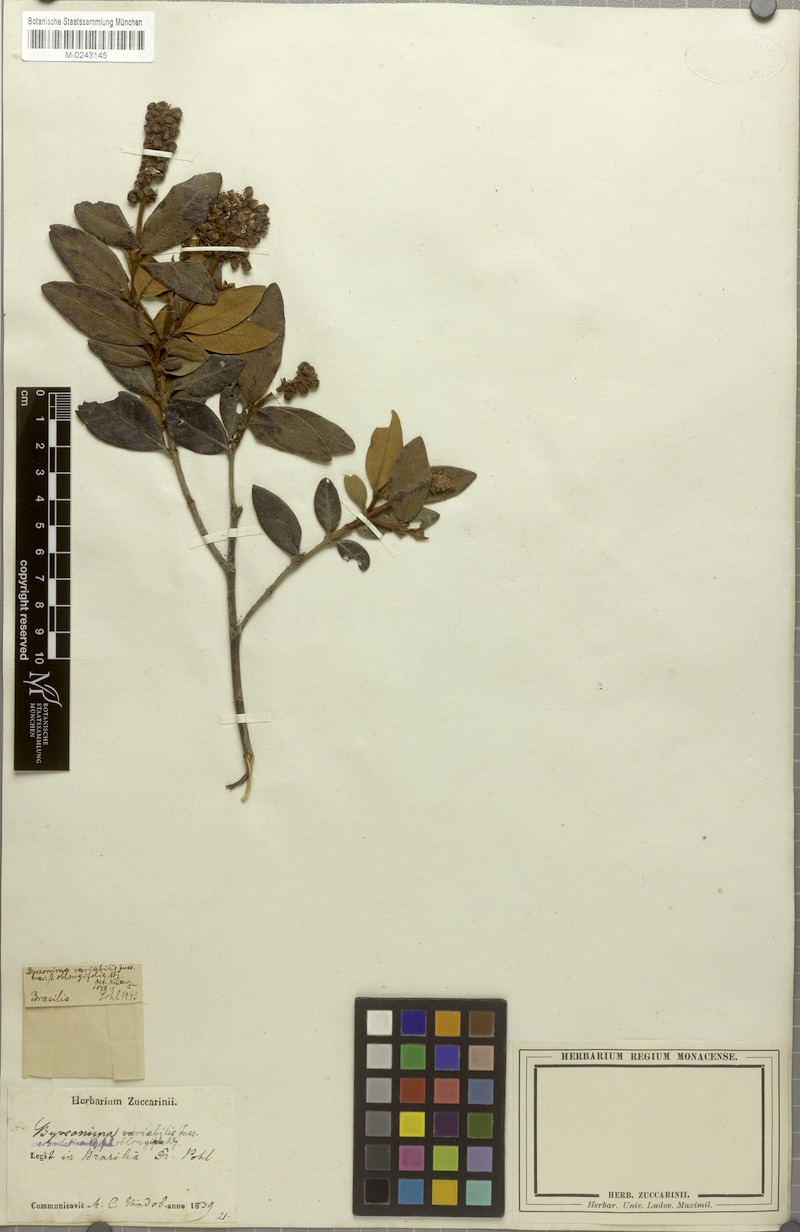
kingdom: Plantae
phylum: Tracheophyta
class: Magnoliopsida
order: Malpighiales
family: Malpighiaceae
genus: Byrsonima
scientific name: Byrsonima variabilis
